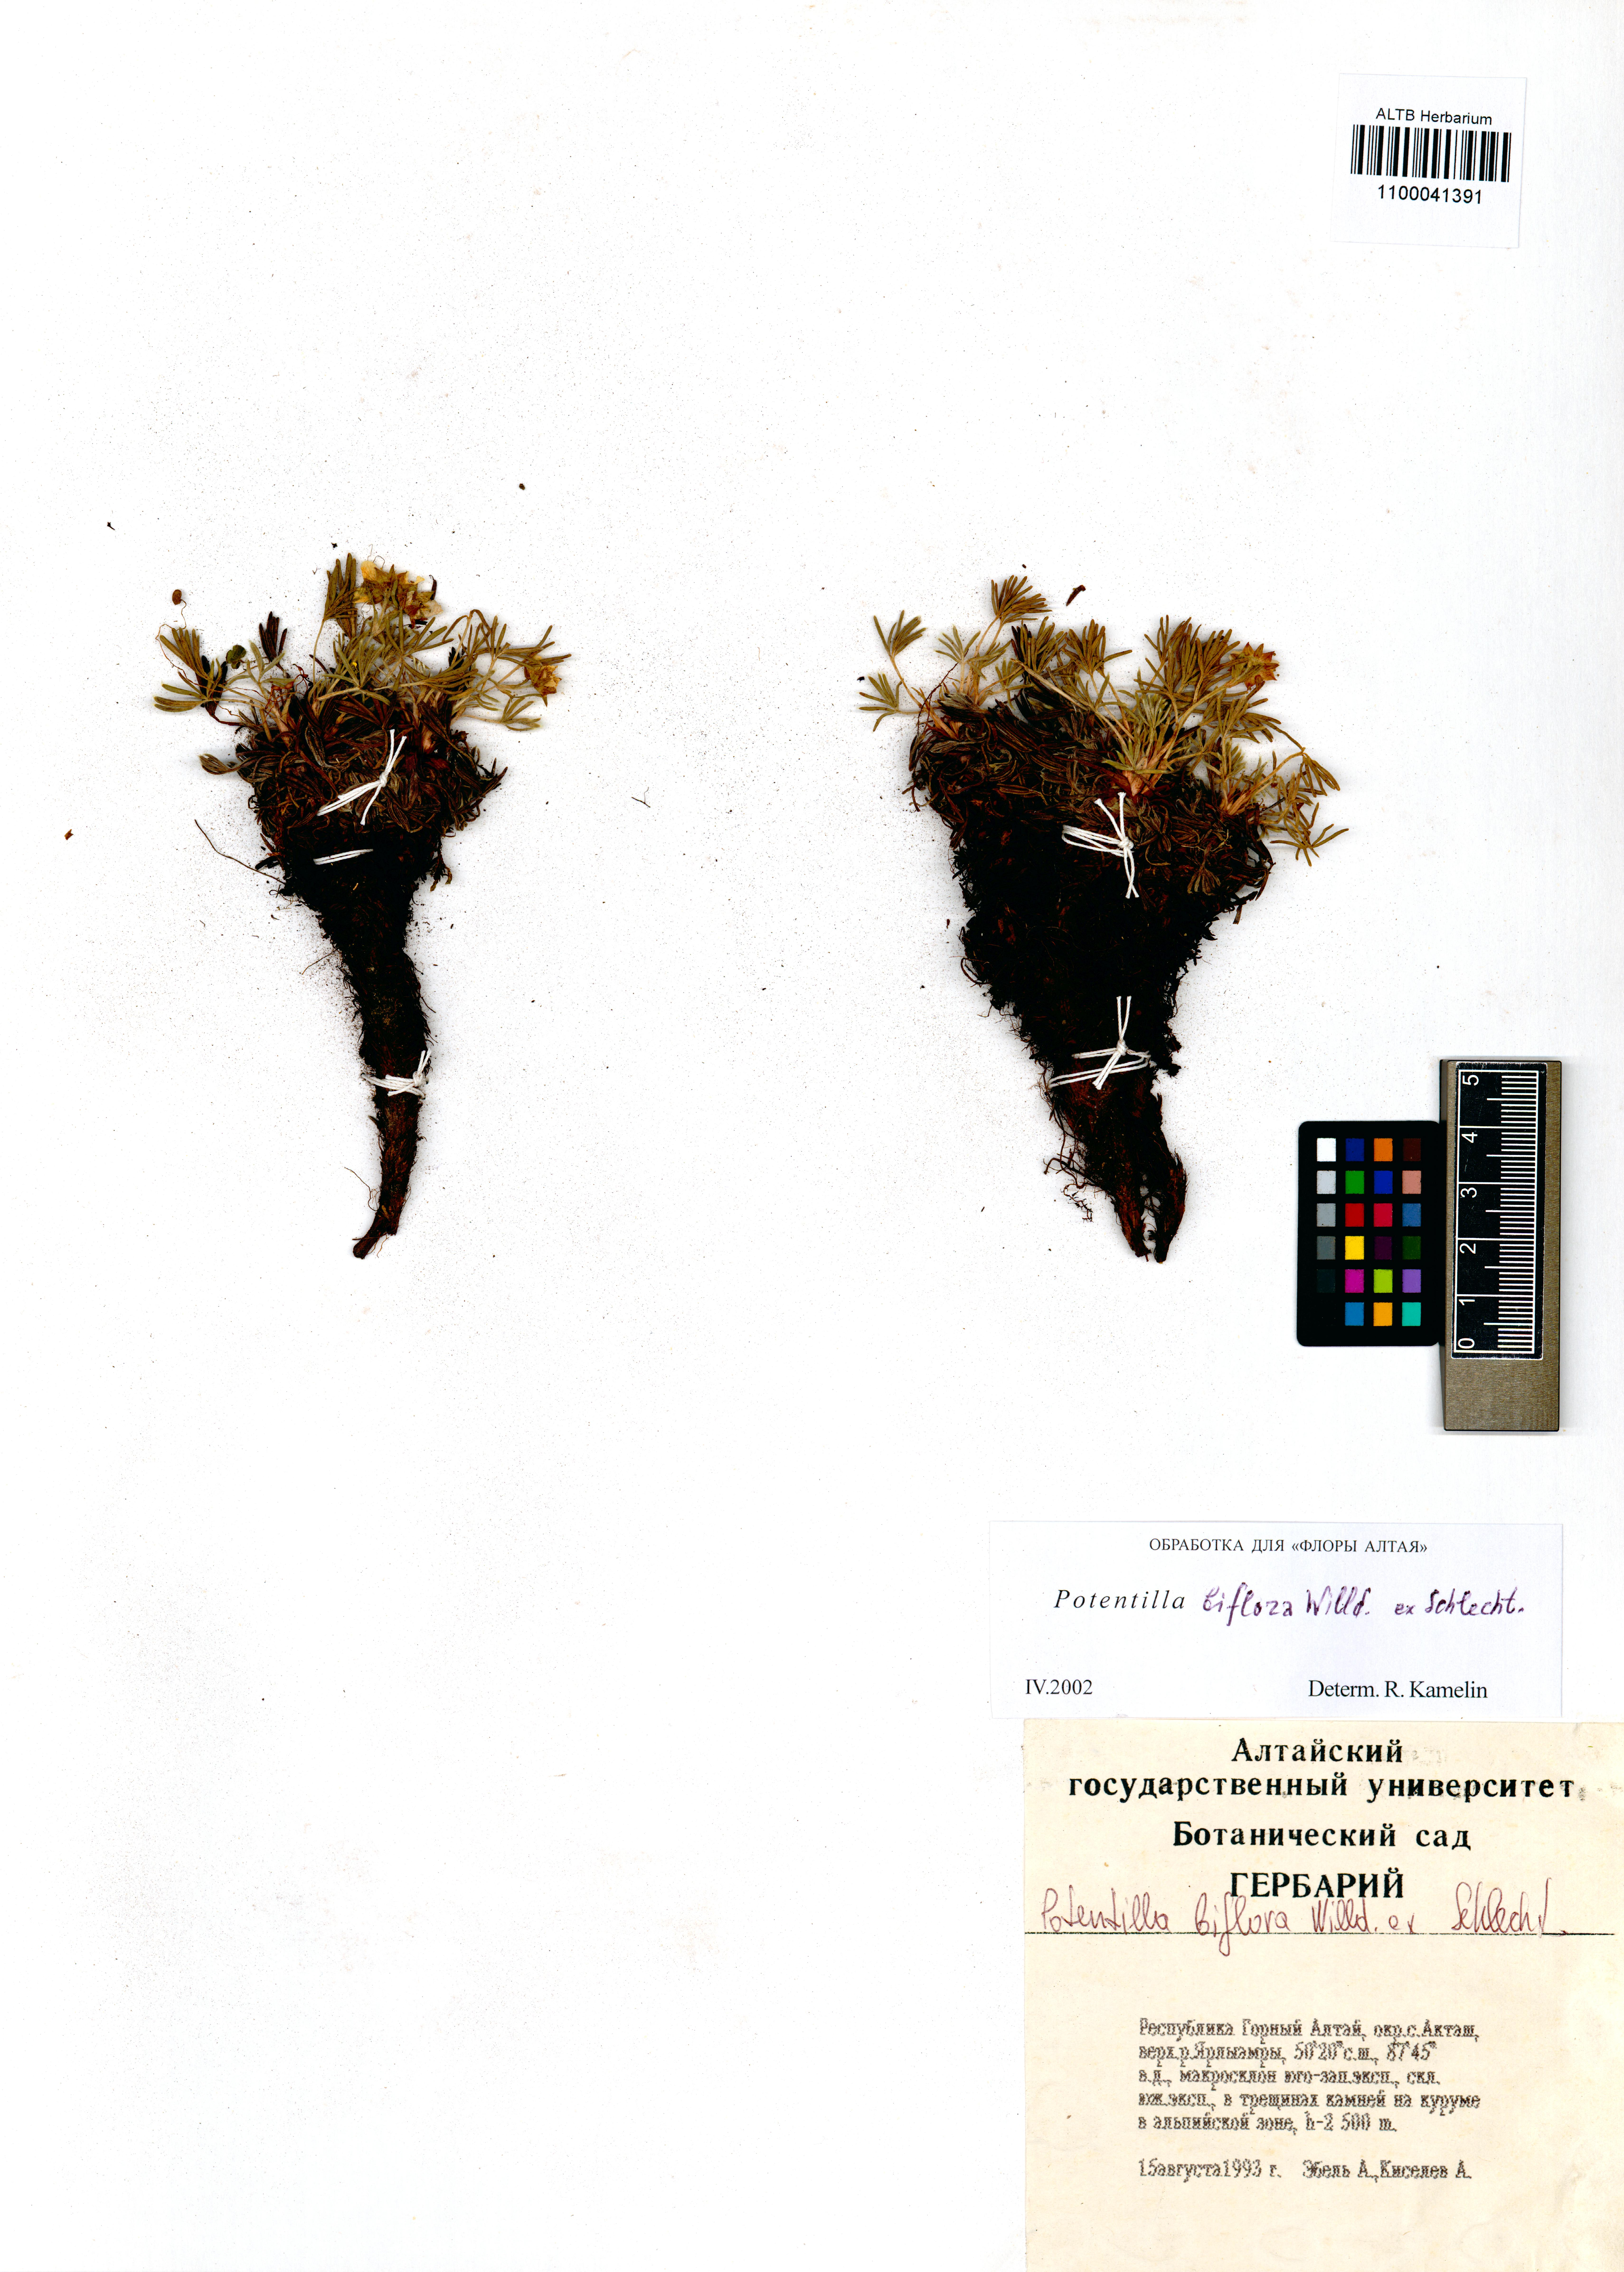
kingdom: Plantae
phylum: Tracheophyta
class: Magnoliopsida
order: Rosales
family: Rosaceae
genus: Potentilla
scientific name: Potentilla biflora
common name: Two-flowered cinquefoil
